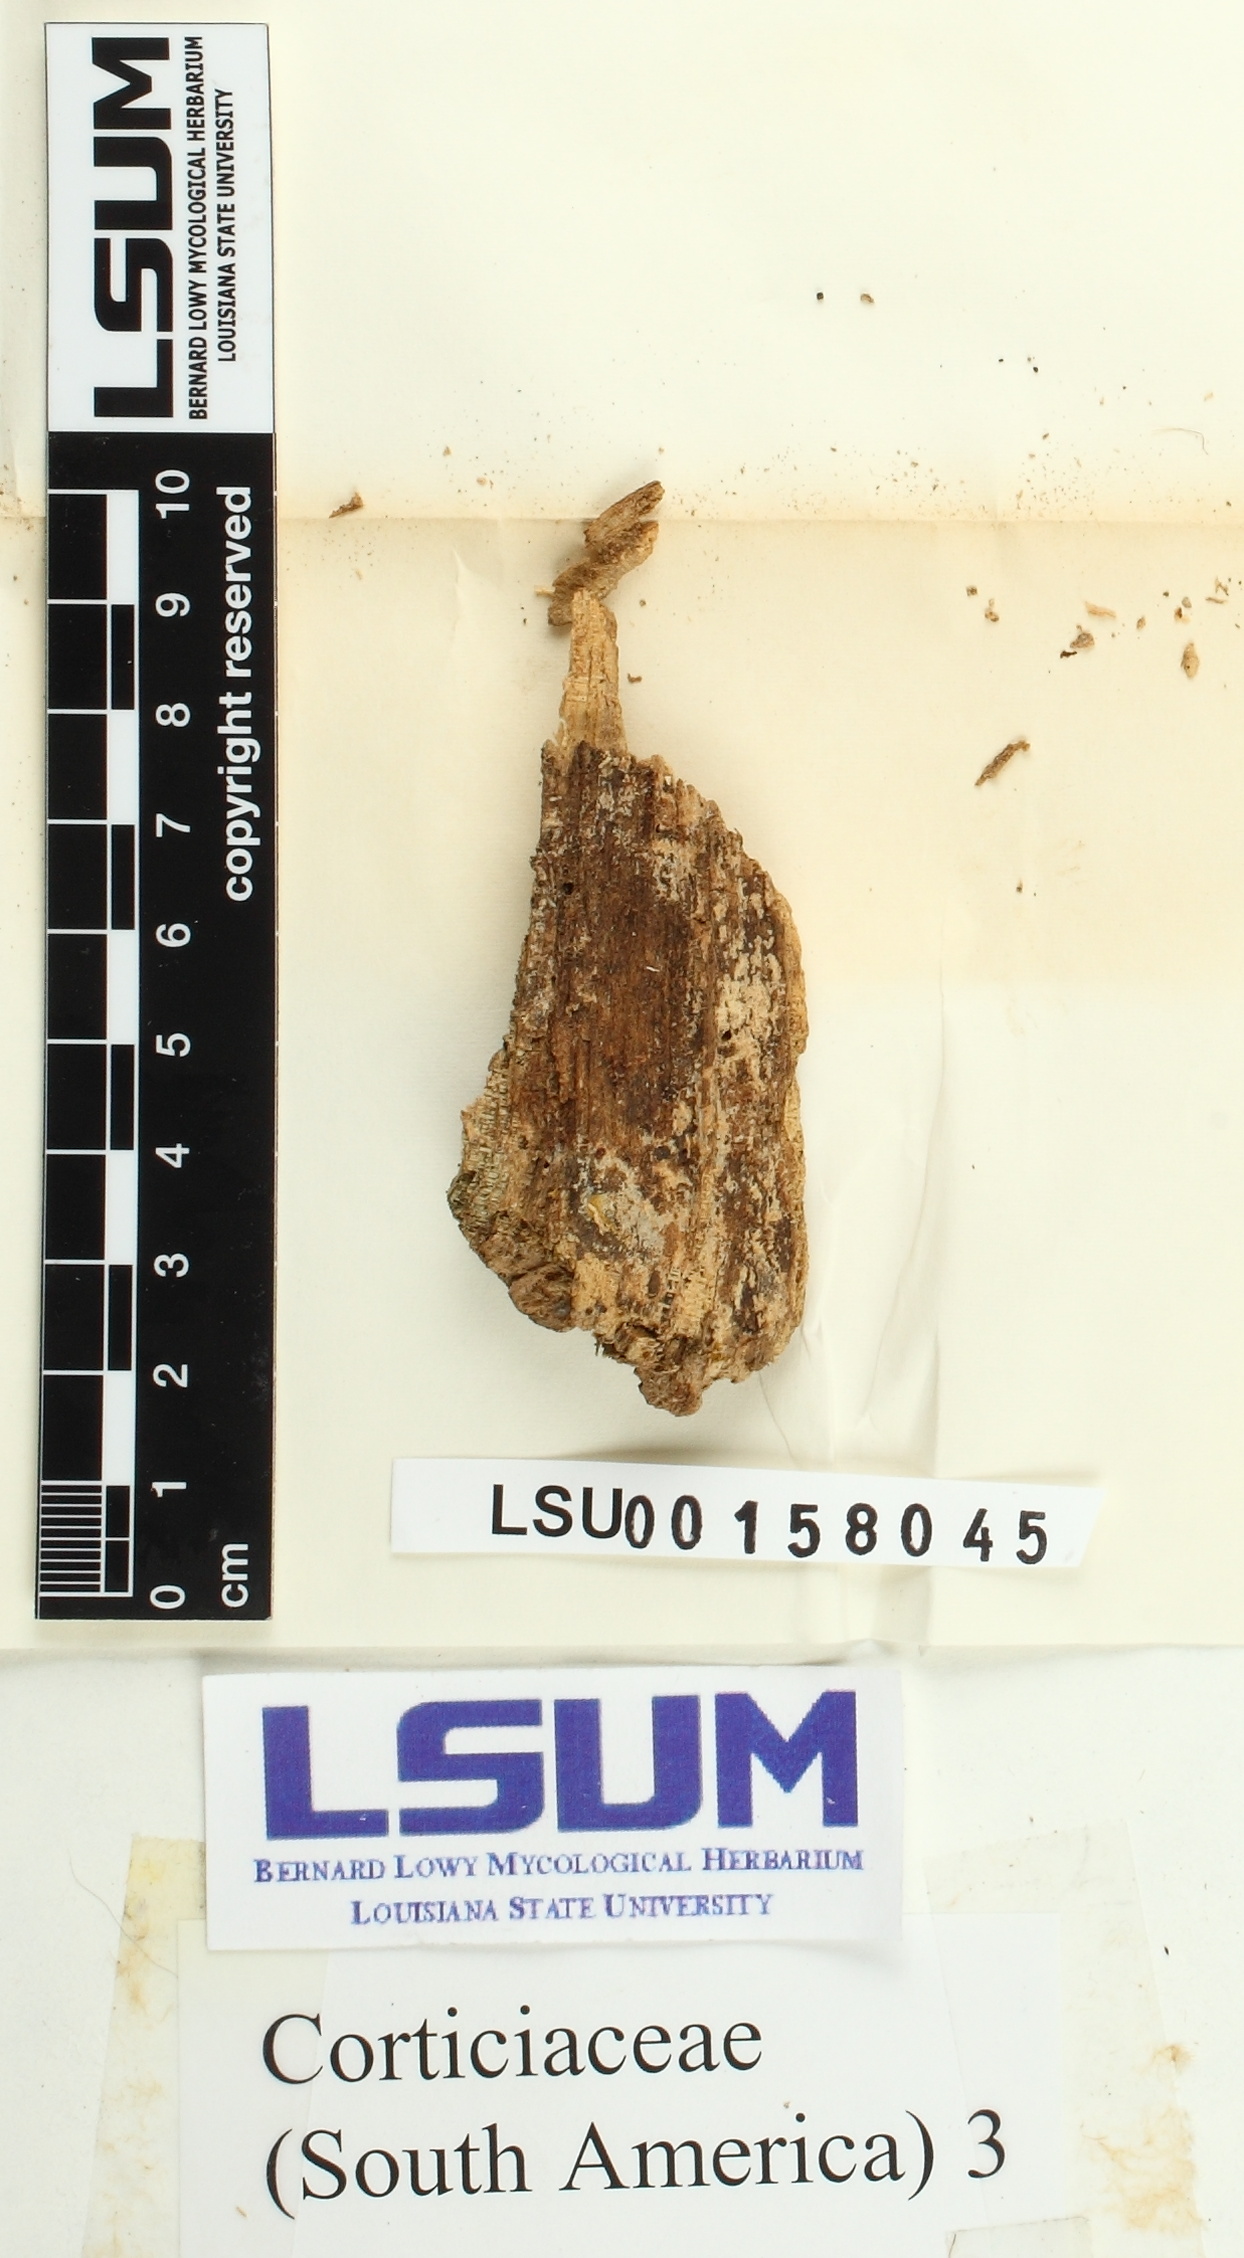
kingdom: Fungi
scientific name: Fungi
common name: Fungi
